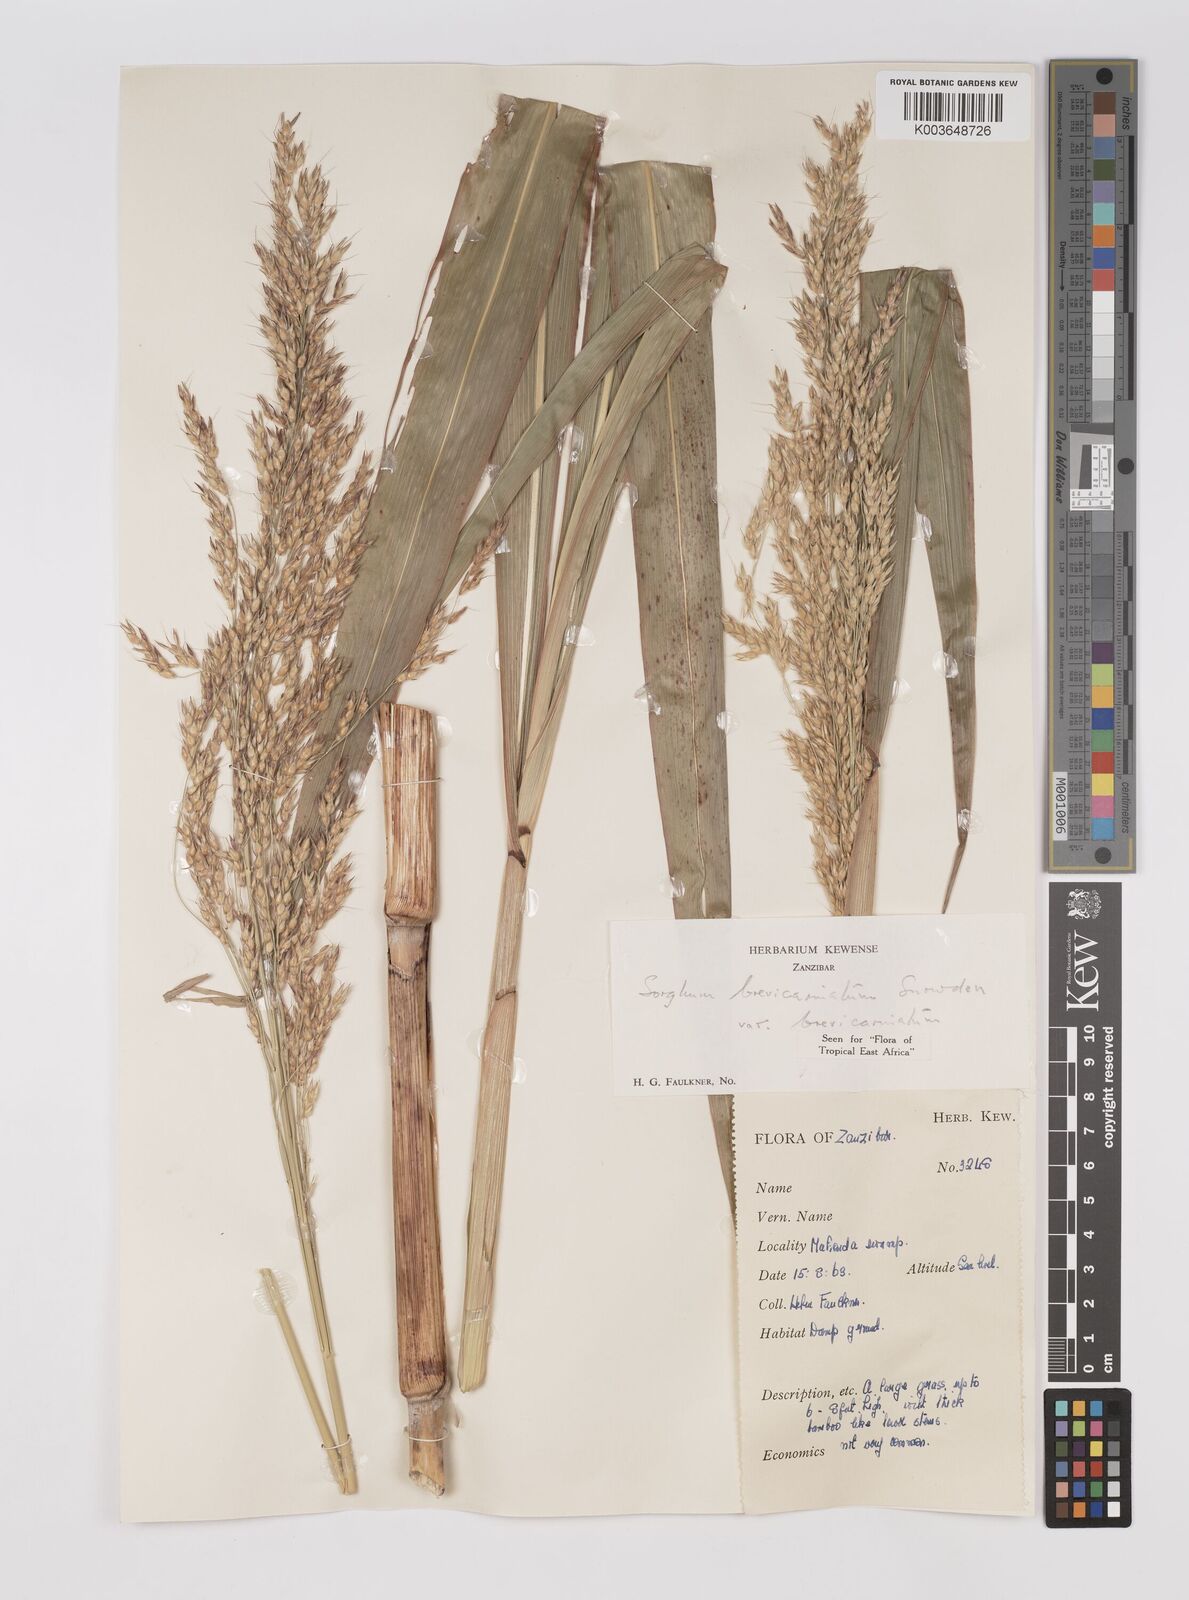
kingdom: Plantae
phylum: Tracheophyta
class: Liliopsida
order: Poales
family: Poaceae
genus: Sorghum
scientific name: Sorghum arundinaceum
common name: Sorghum
